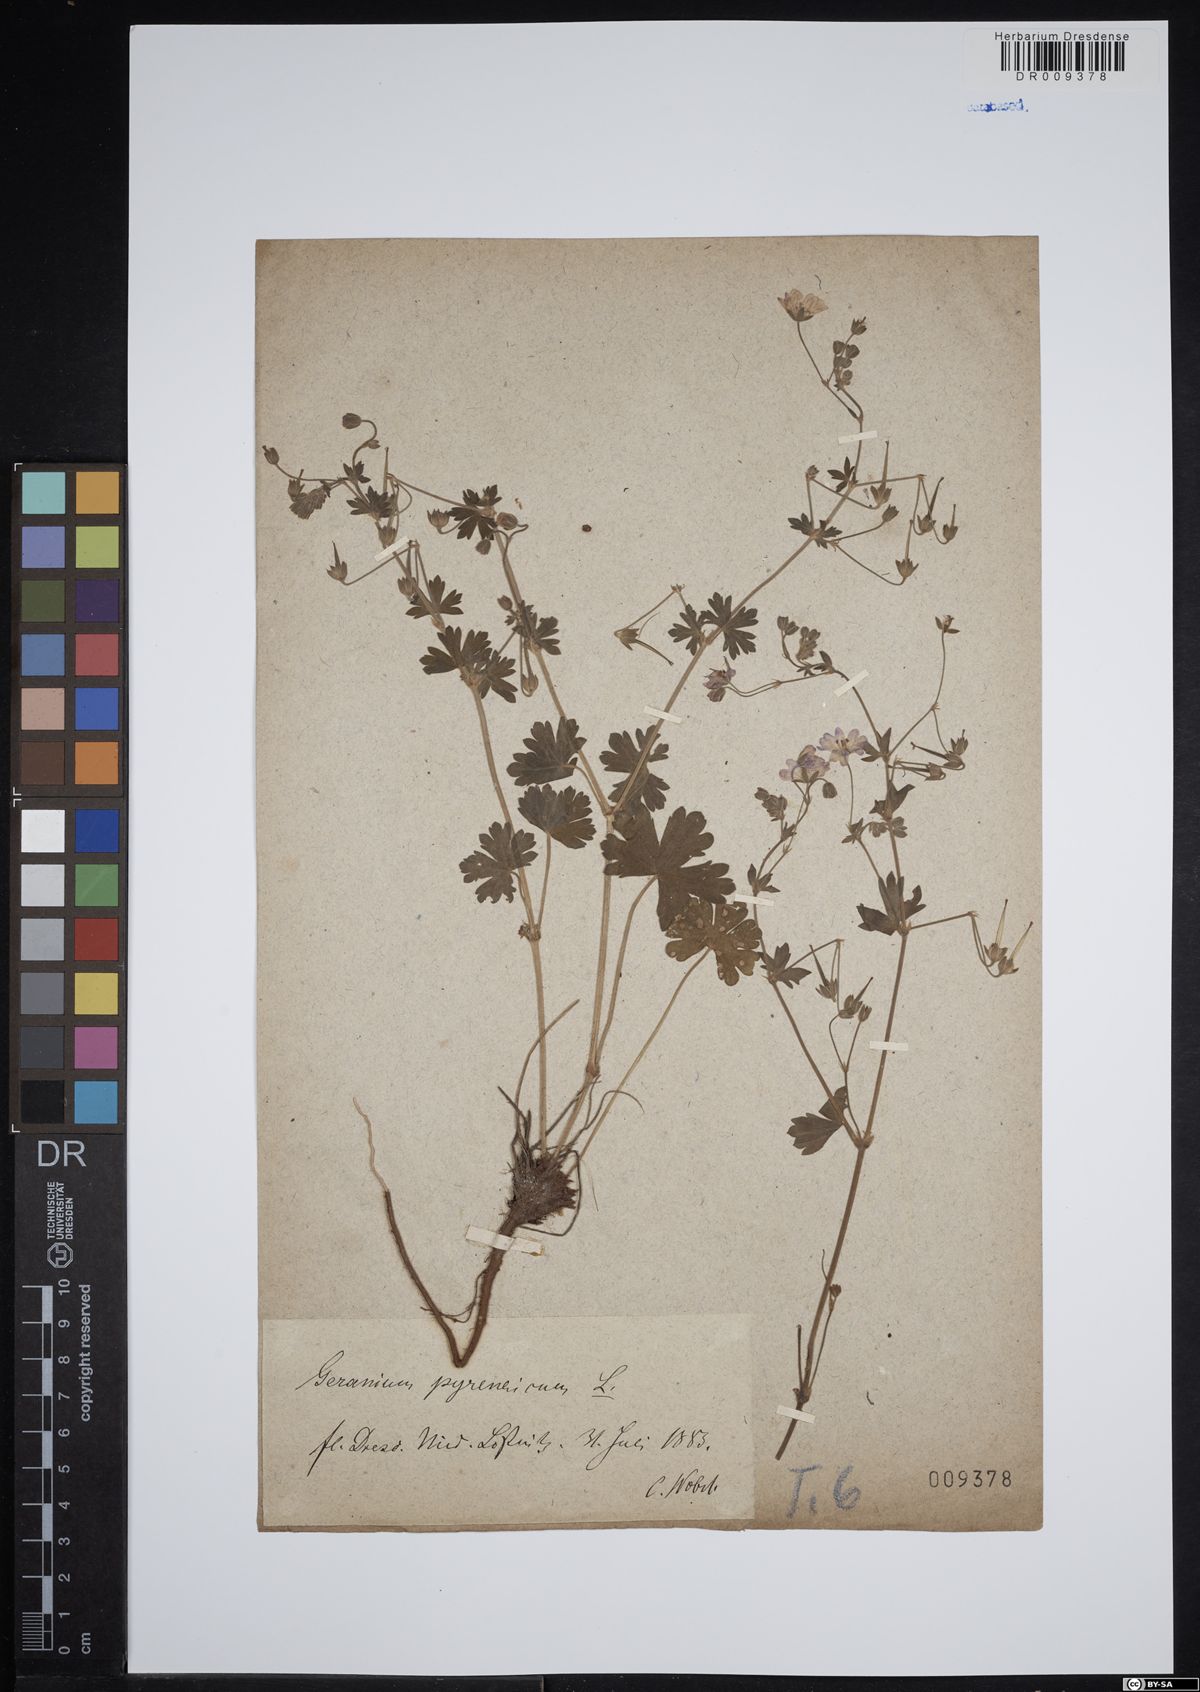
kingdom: Plantae
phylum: Tracheophyta
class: Magnoliopsida
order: Geraniales
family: Geraniaceae
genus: Geranium
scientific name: Geranium pyrenaicum
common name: Hedgerow crane's-bill
